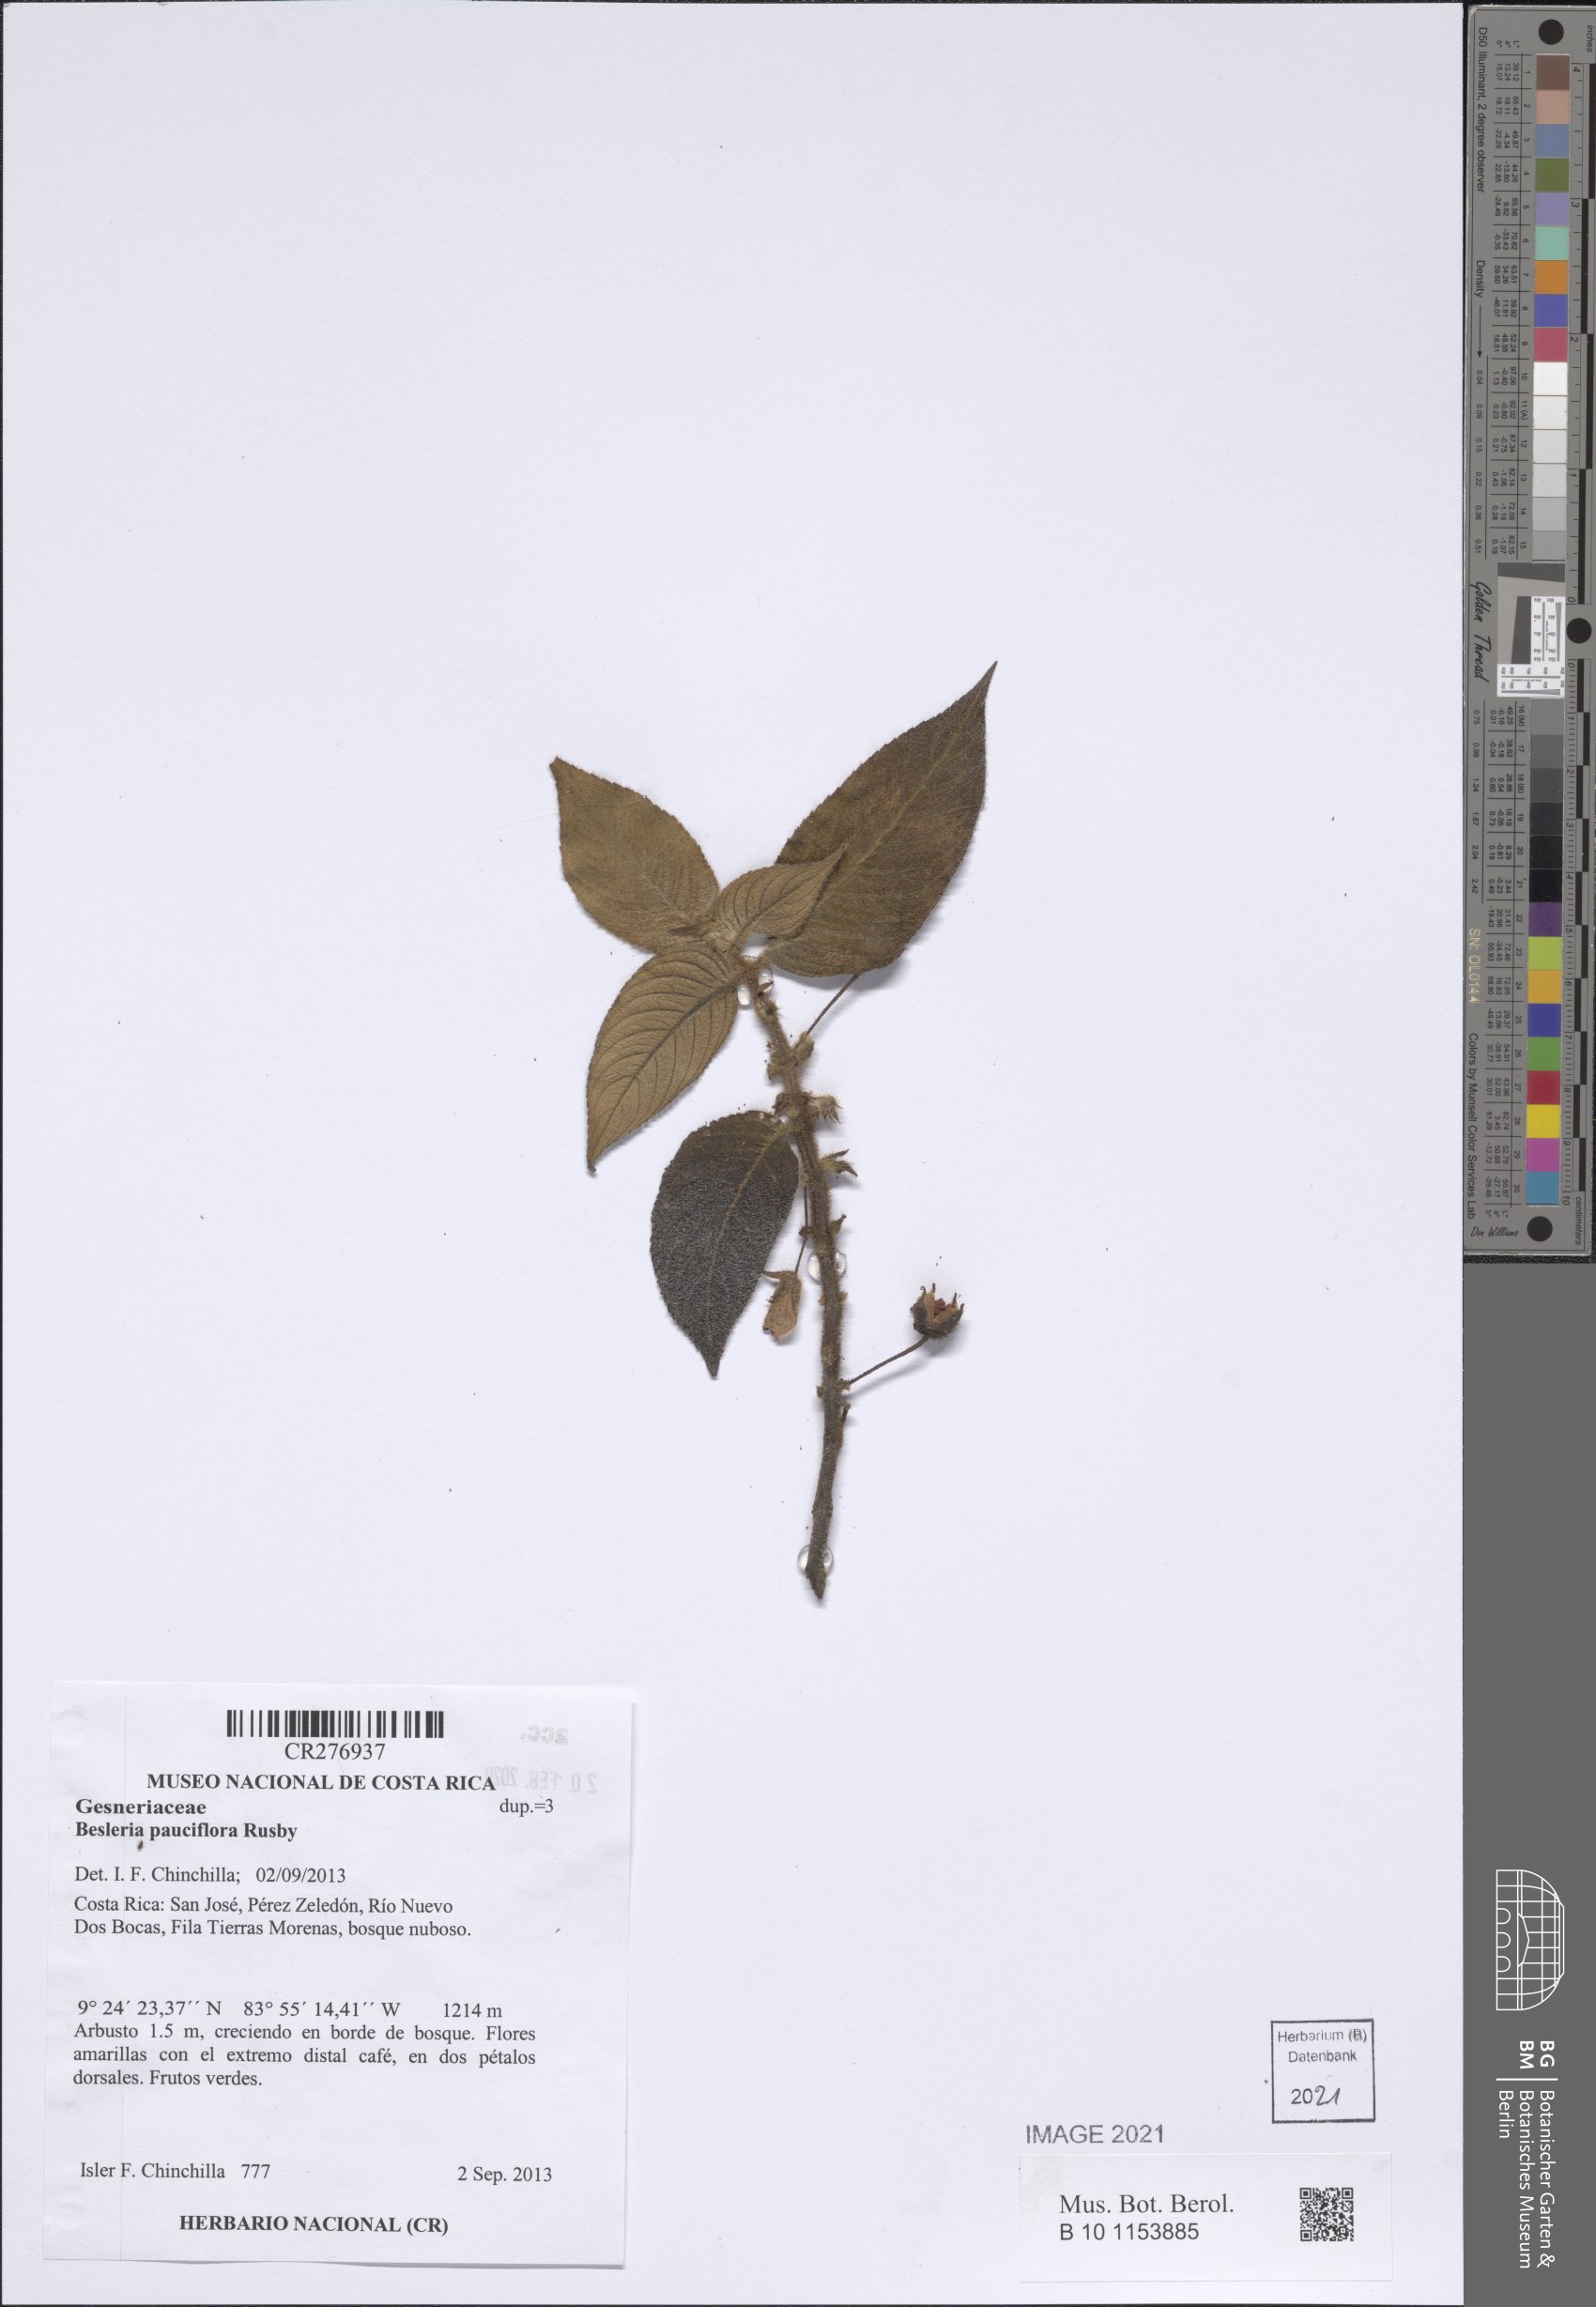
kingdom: Plantae
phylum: Tracheophyta
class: Magnoliopsida
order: Lamiales
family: Gesneriaceae
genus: Besleria
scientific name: Besleria pauciflora
